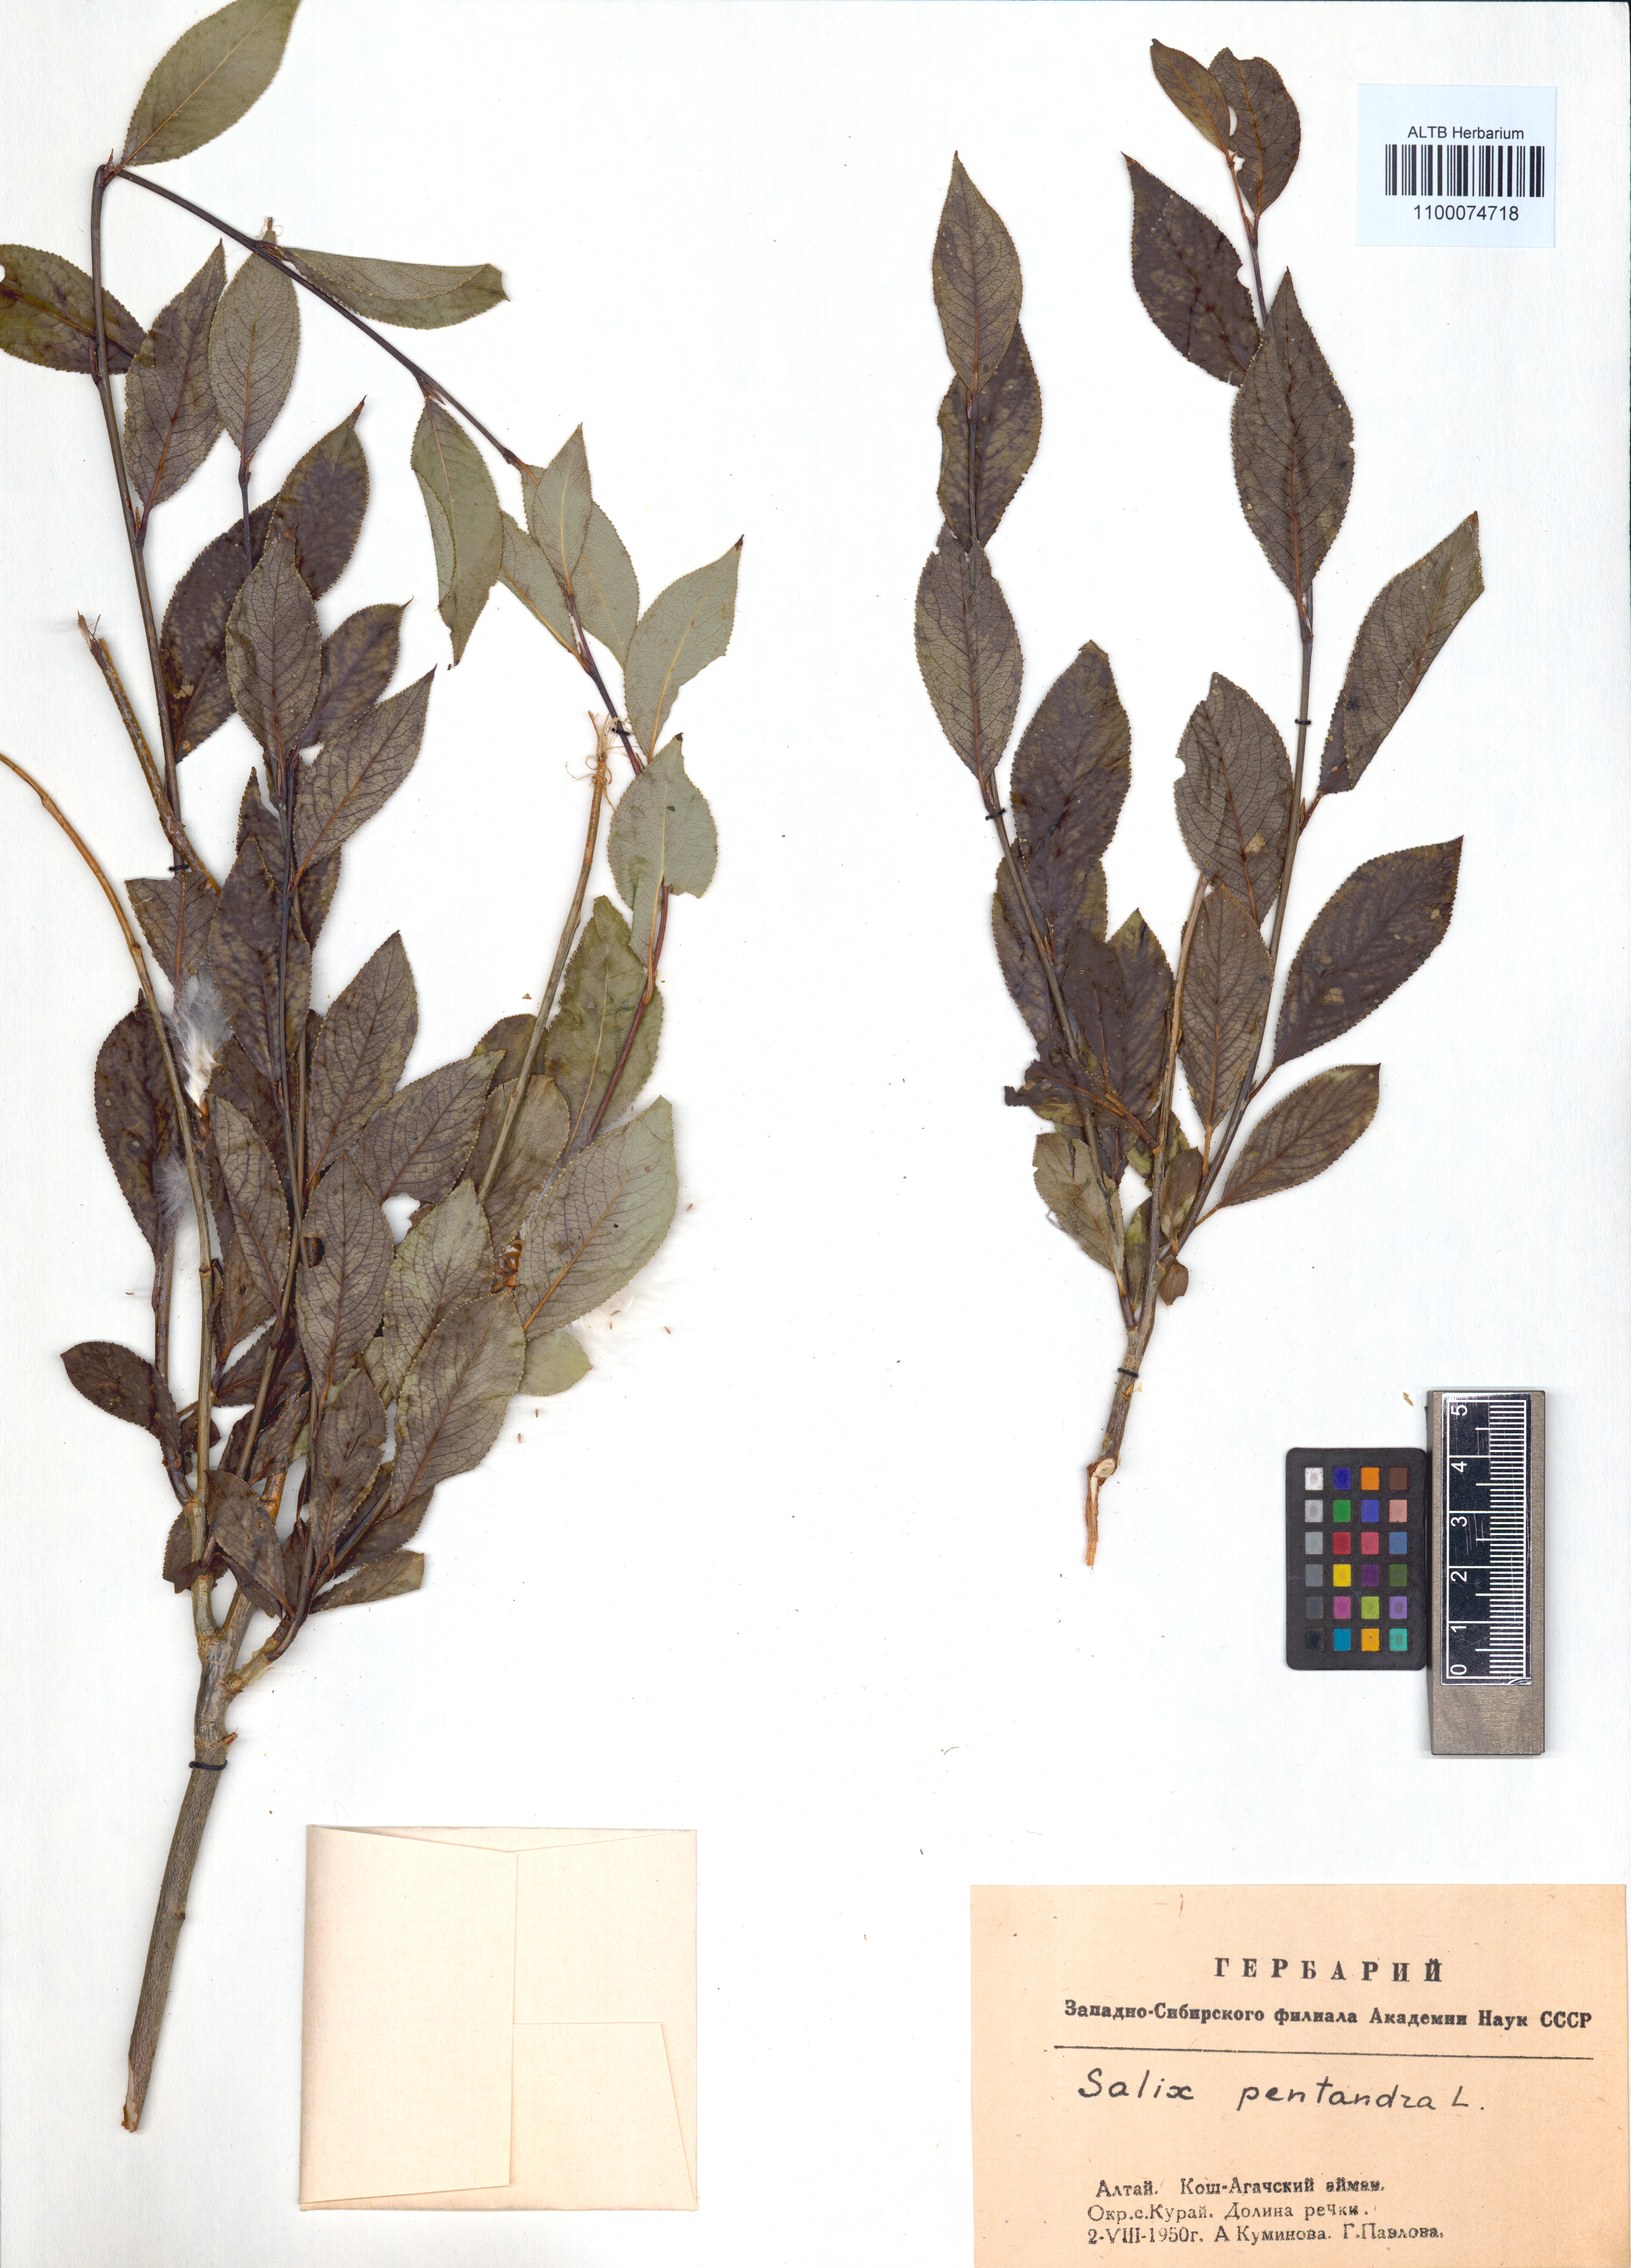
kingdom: Plantae
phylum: Tracheophyta
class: Magnoliopsida
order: Malpighiales
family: Salicaceae
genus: Salix
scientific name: Salix pentandra
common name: Bay willow
